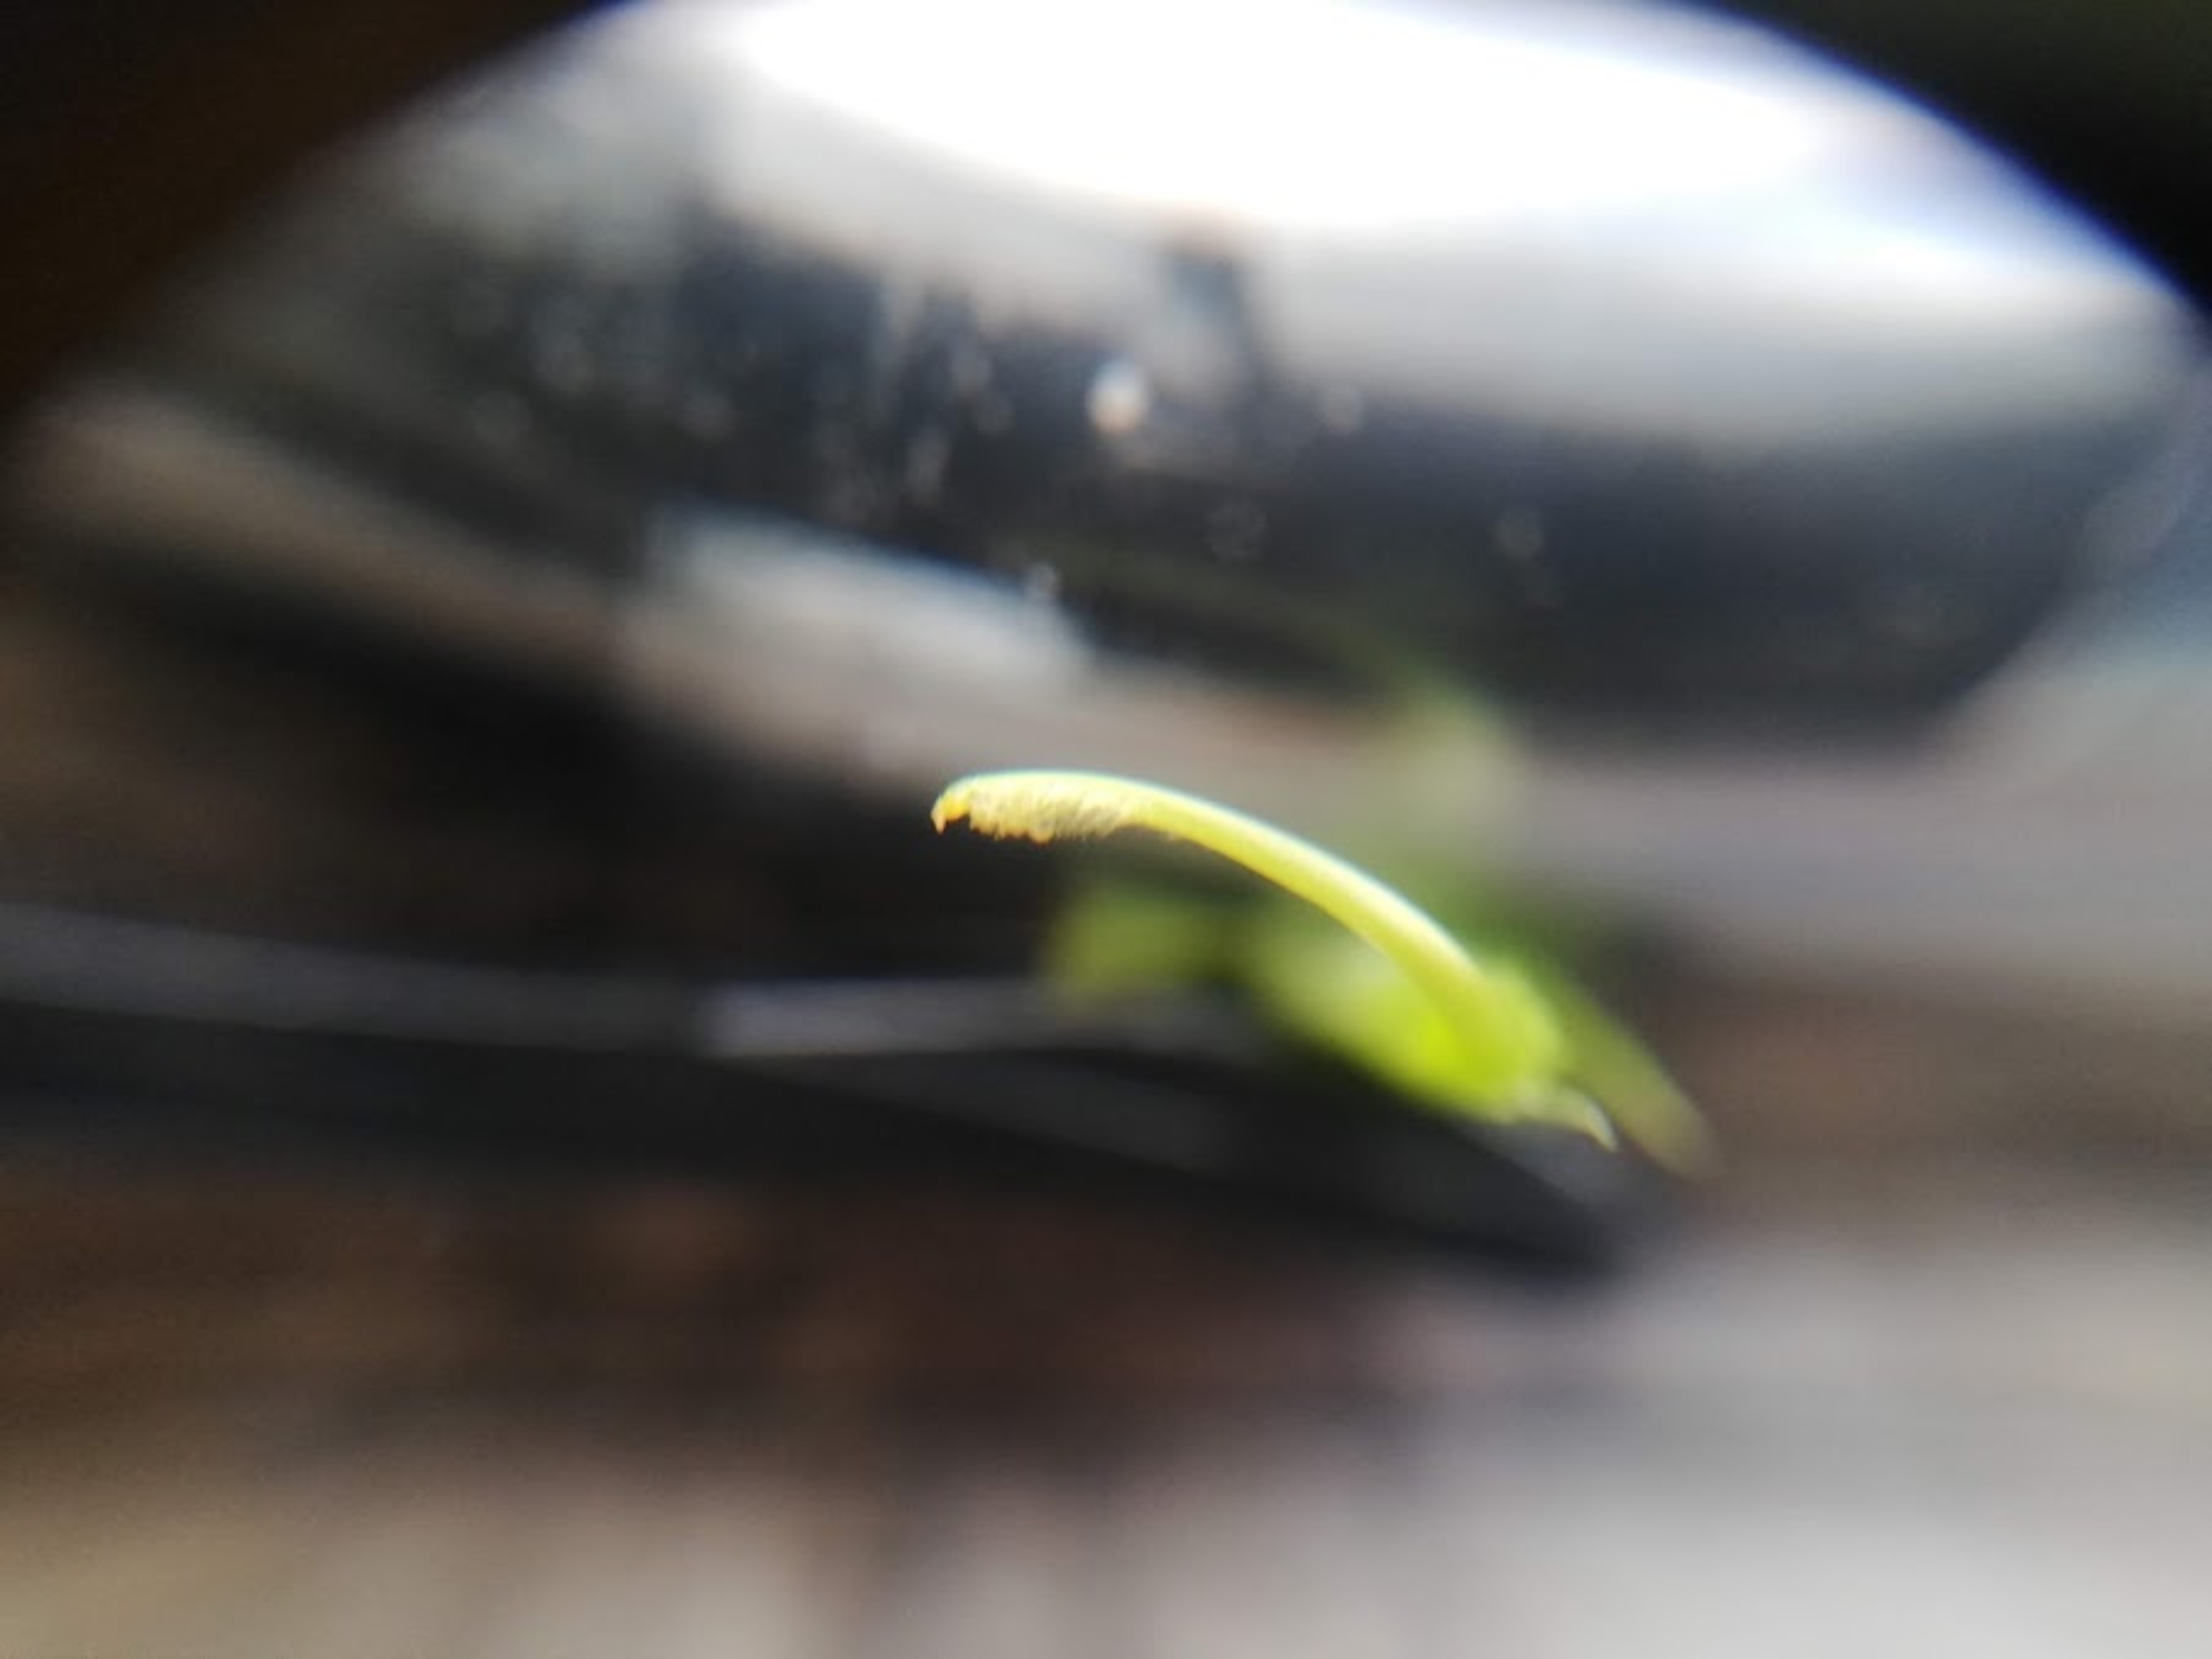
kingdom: Plantae
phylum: Tracheophyta
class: Magnoliopsida
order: Fabales
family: Fabaceae
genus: Lathyrus
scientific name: Lathyrus sylvestris
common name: Skov-fladbælg
